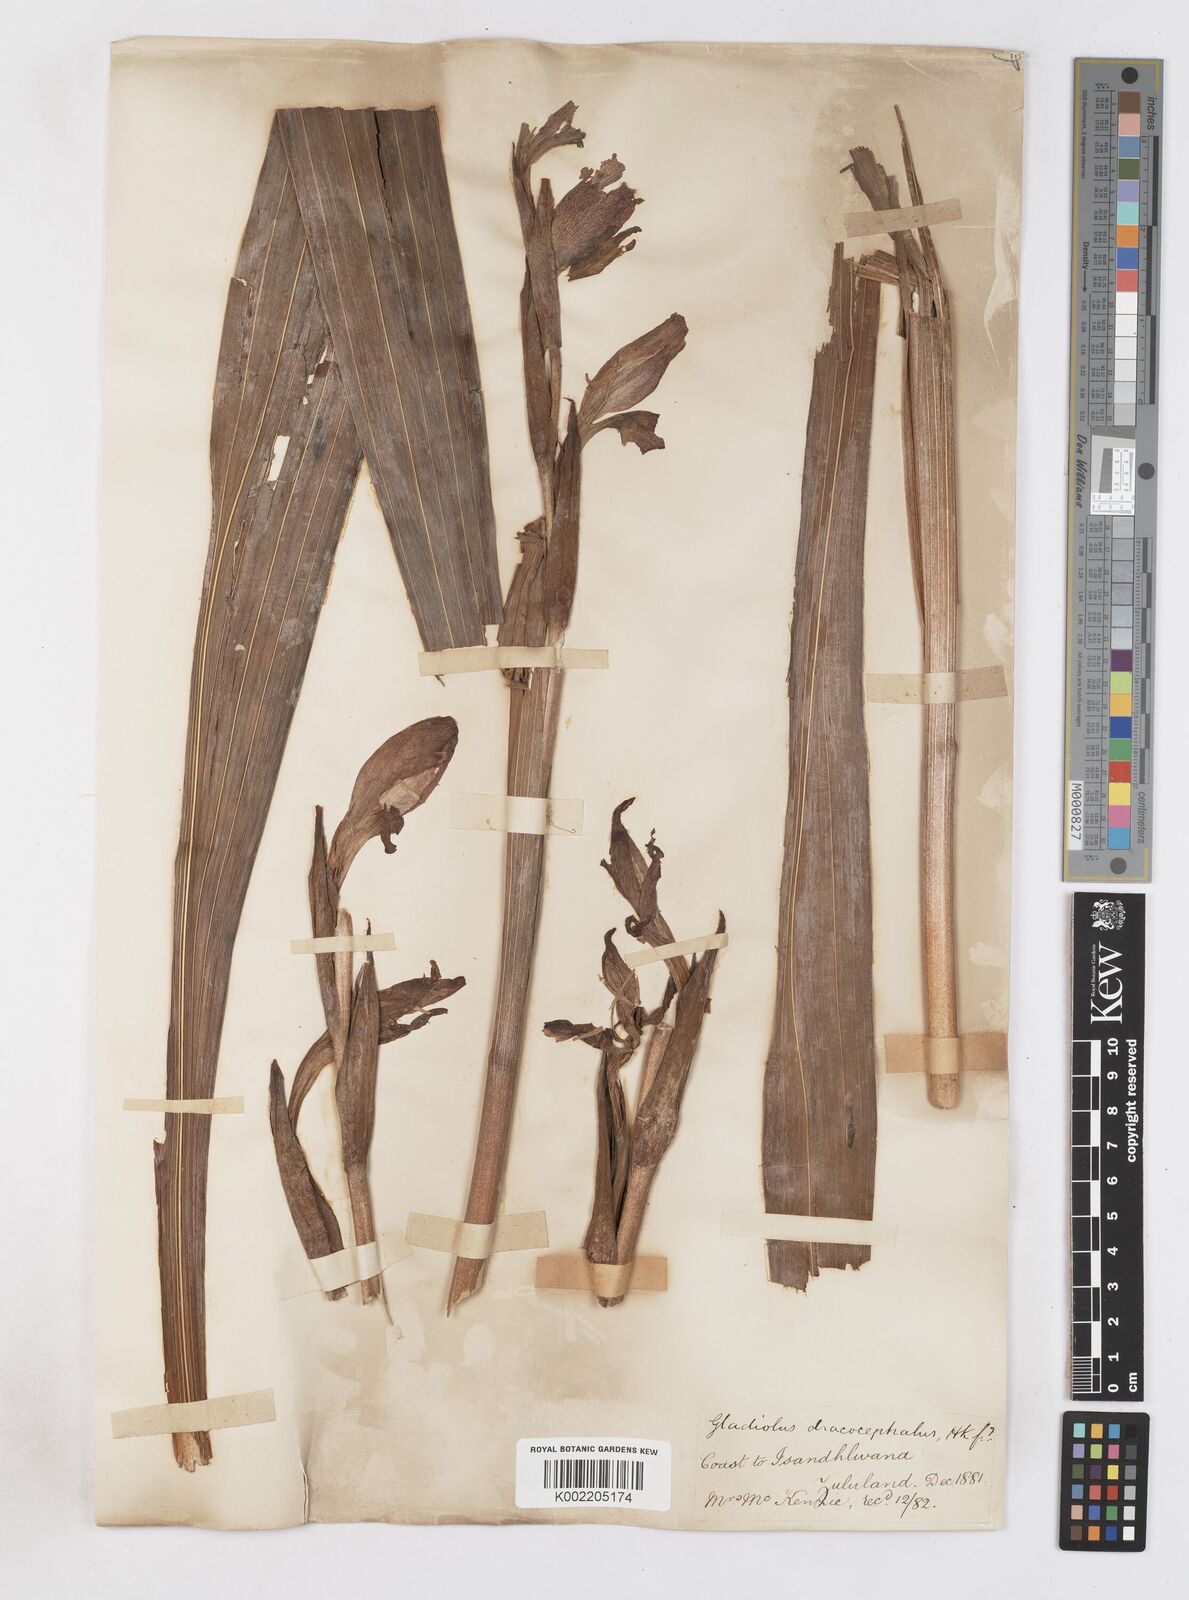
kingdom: Plantae
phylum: Tracheophyta
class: Liliopsida
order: Asparagales
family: Iridaceae
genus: Gladiolus
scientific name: Gladiolus dalenii
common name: Cornflag
